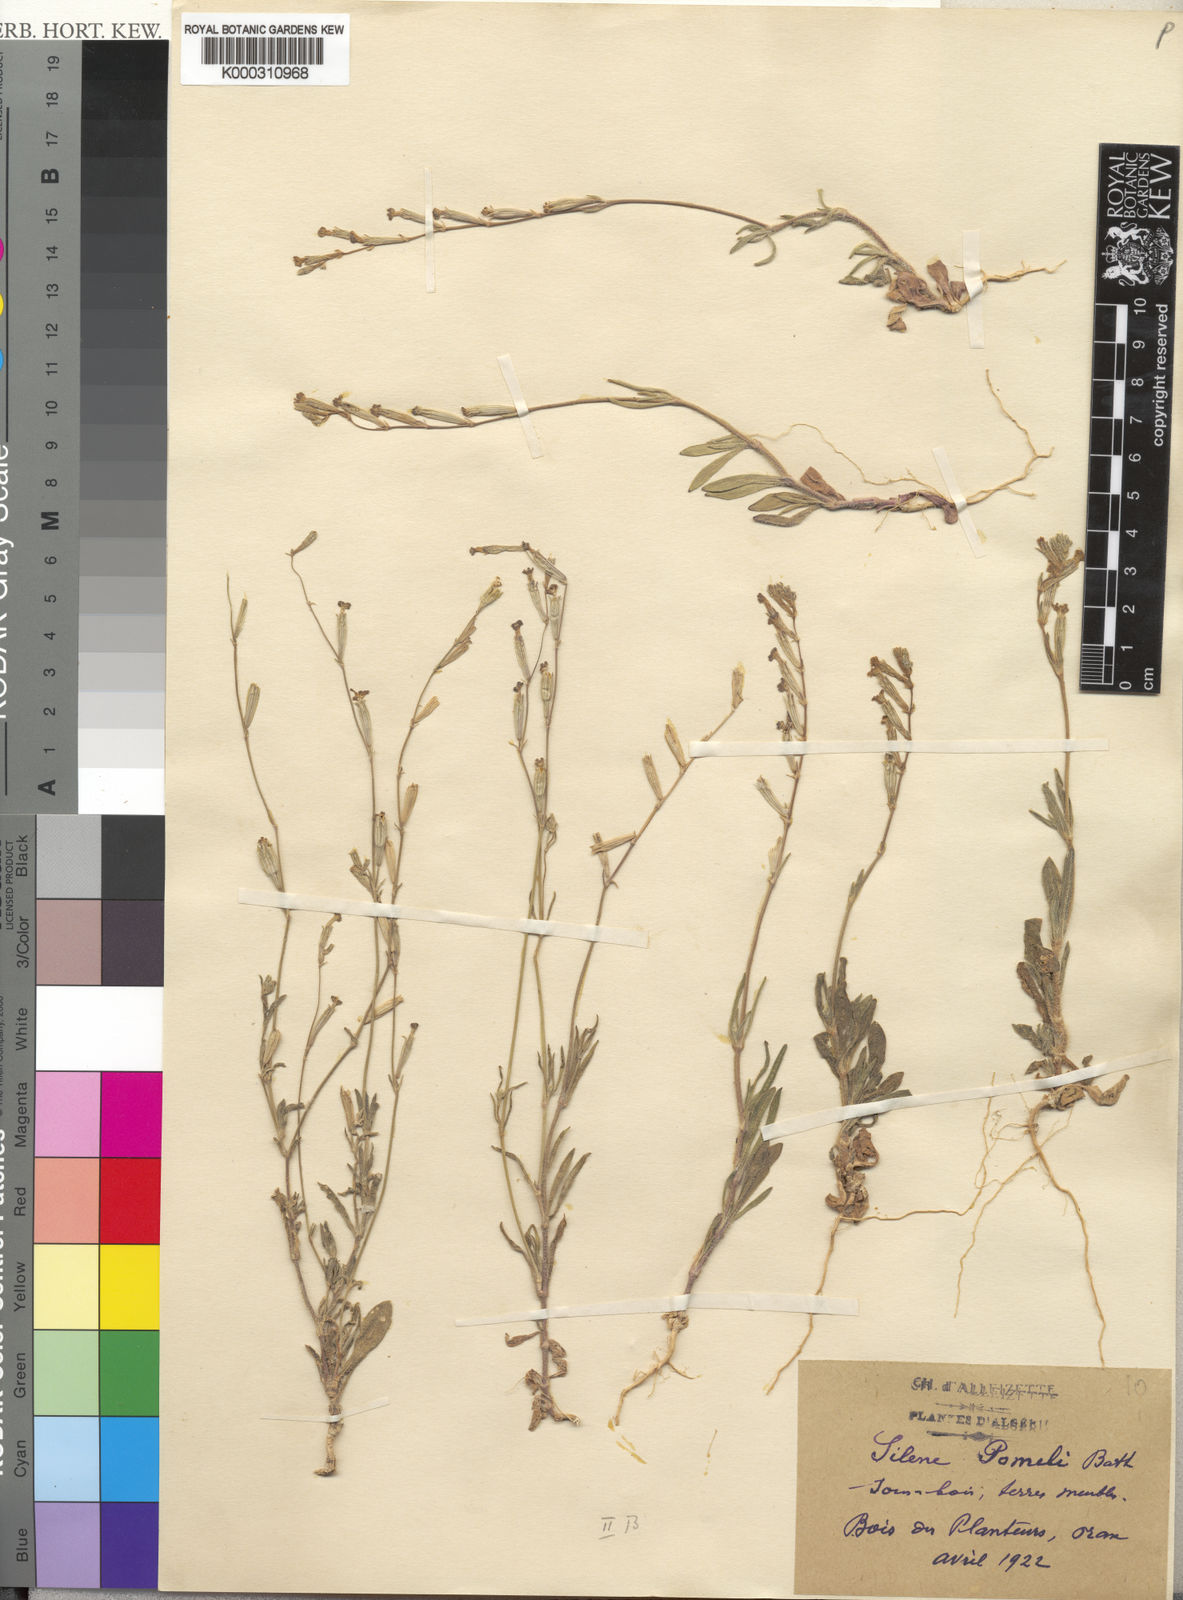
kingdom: Plantae
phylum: Tracheophyta
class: Magnoliopsida
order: Caryophyllales
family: Caryophyllaceae
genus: Silene
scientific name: Silene pomelii
